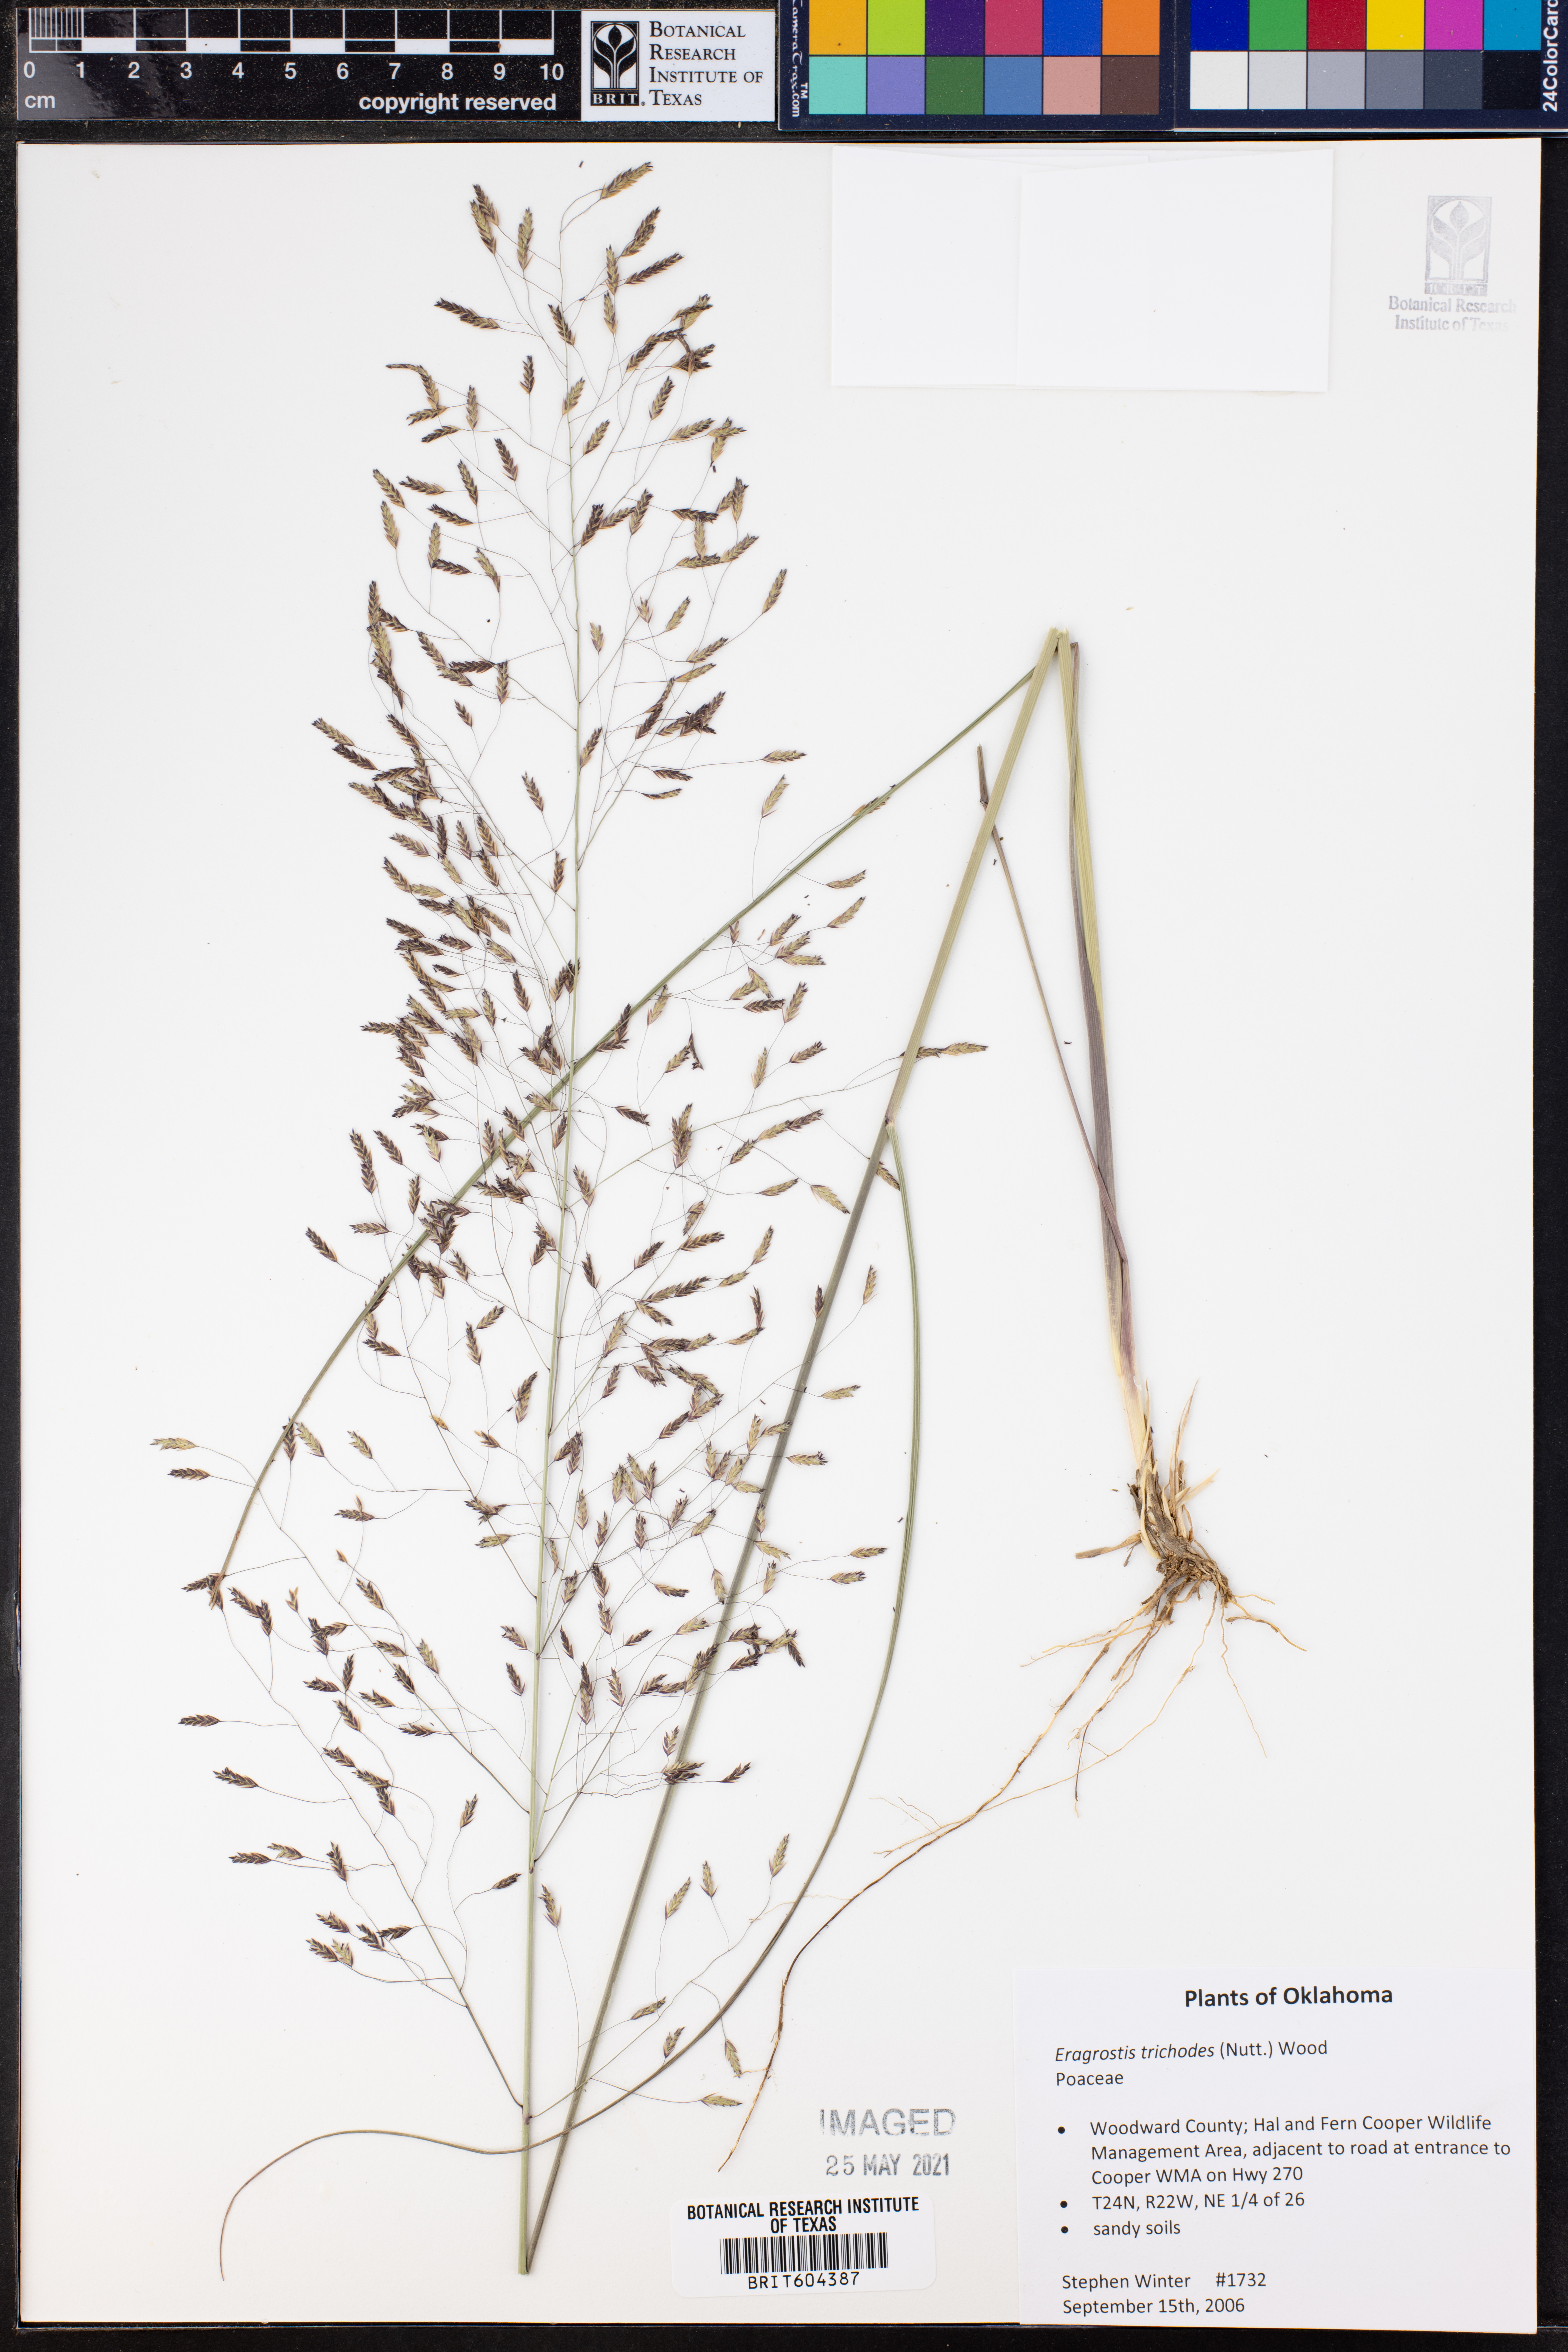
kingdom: Plantae
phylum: Tracheophyta
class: Liliopsida
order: Poales
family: Poaceae
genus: Eragrostis
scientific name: Eragrostis trichodes
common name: Sand love grass
